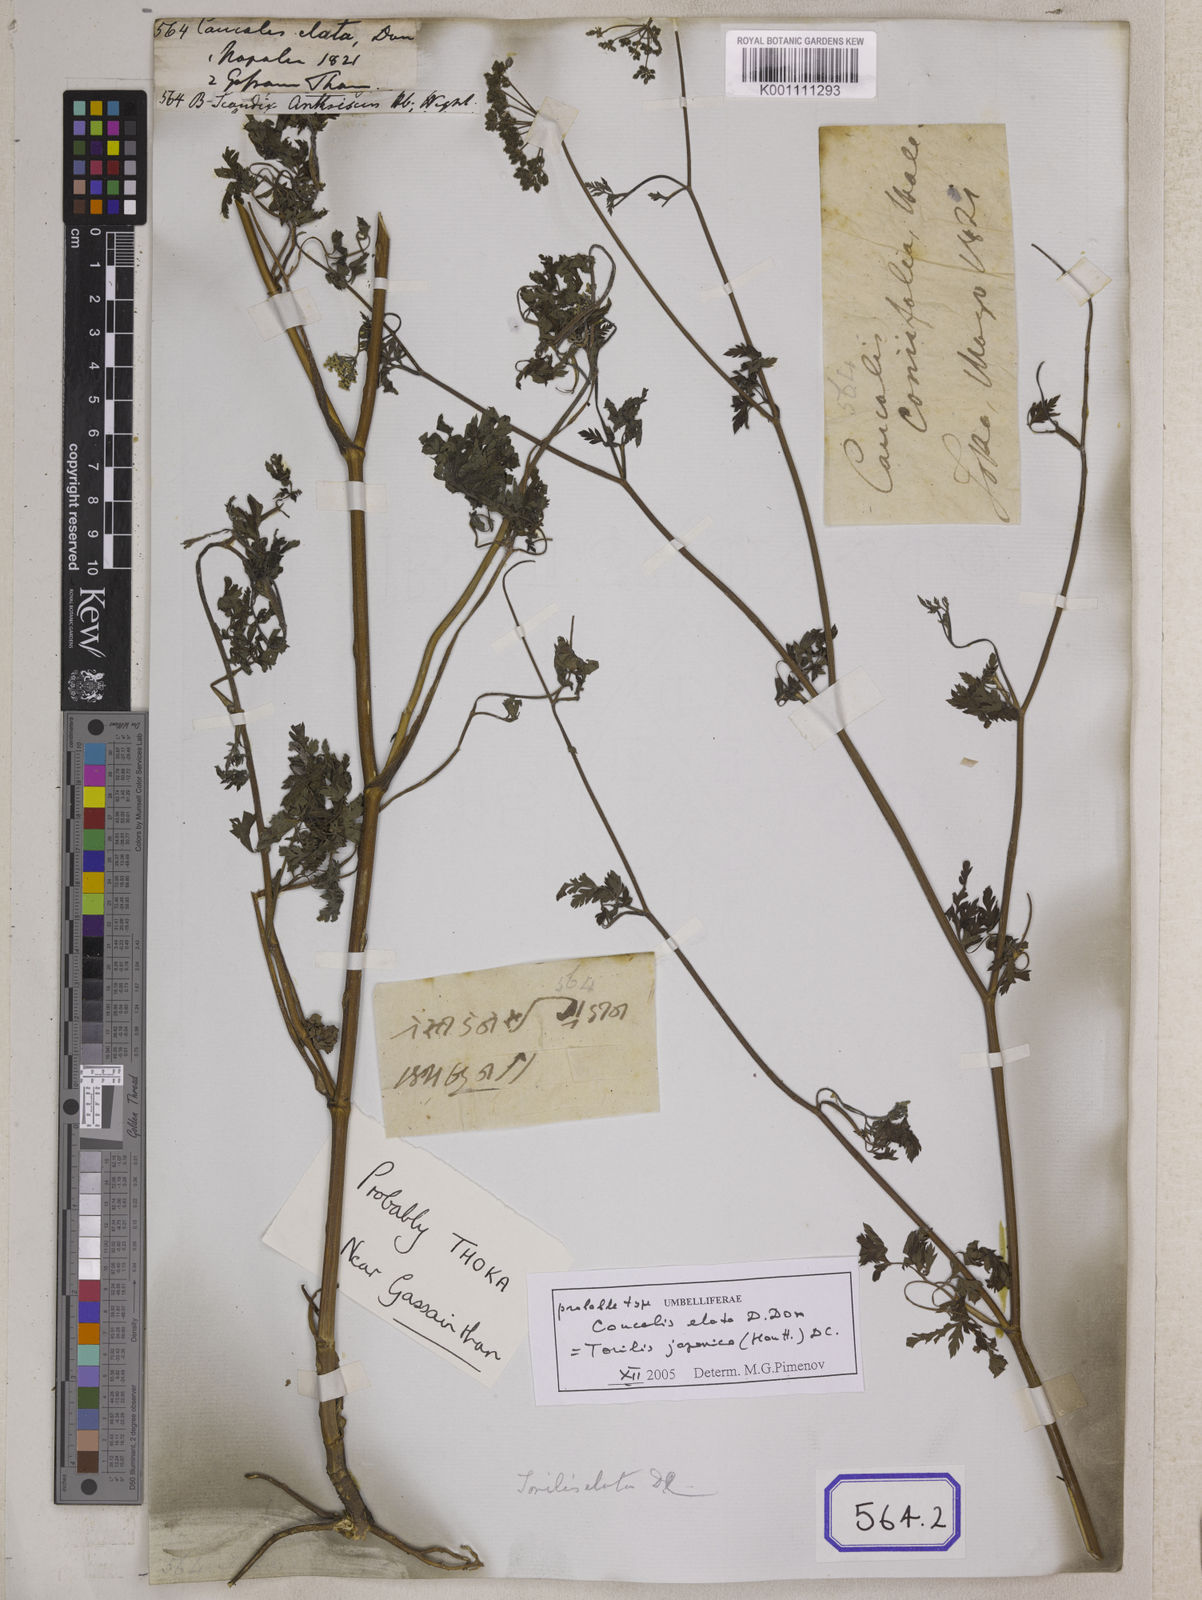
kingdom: Plantae
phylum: Tracheophyta
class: Magnoliopsida
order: Apiales
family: Apiaceae
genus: Torilis
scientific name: Torilis japonica
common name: Upright hedge-parsley
